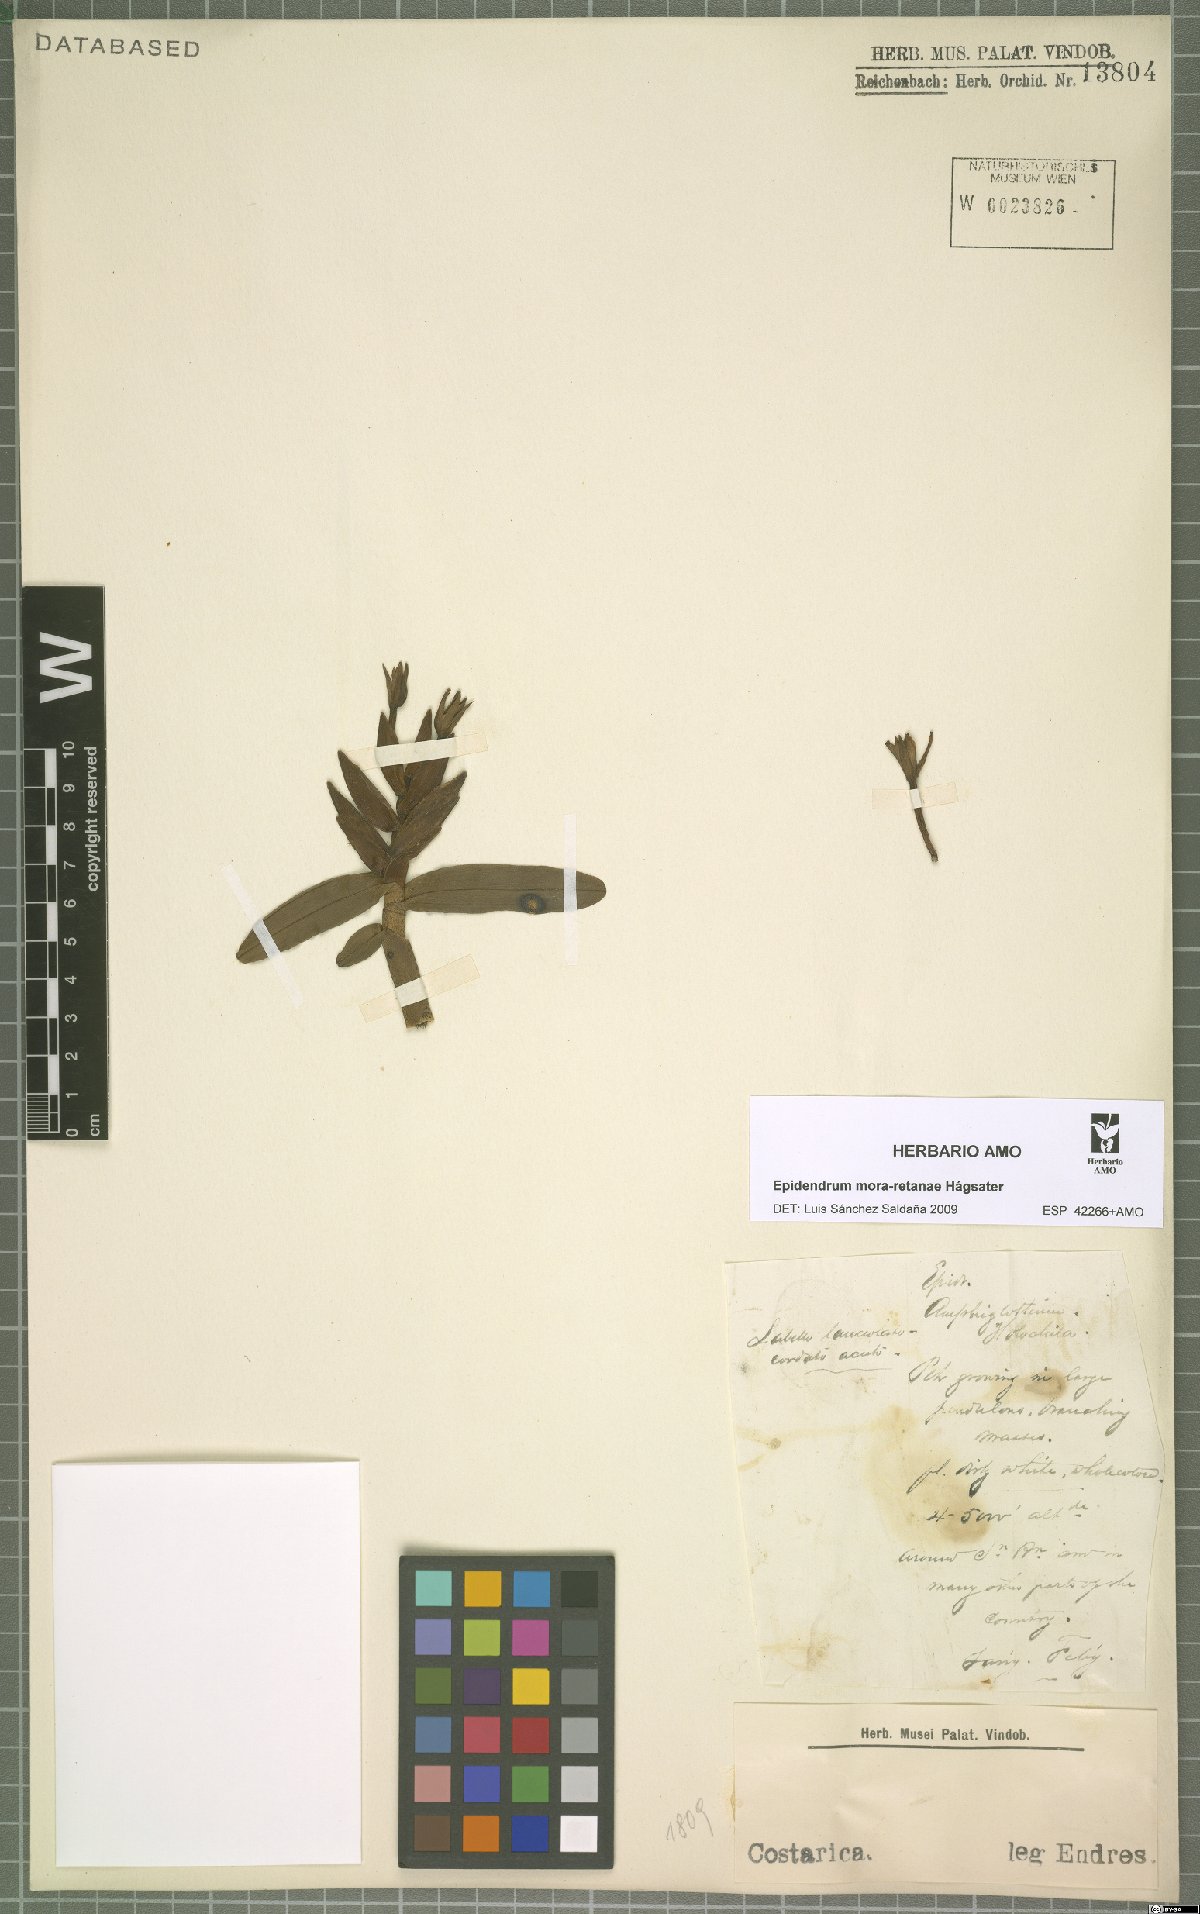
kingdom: Plantae
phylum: Tracheophyta
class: Liliopsida
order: Asparagales
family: Orchidaceae
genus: Epidendrum
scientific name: Epidendrum mora-retanae
